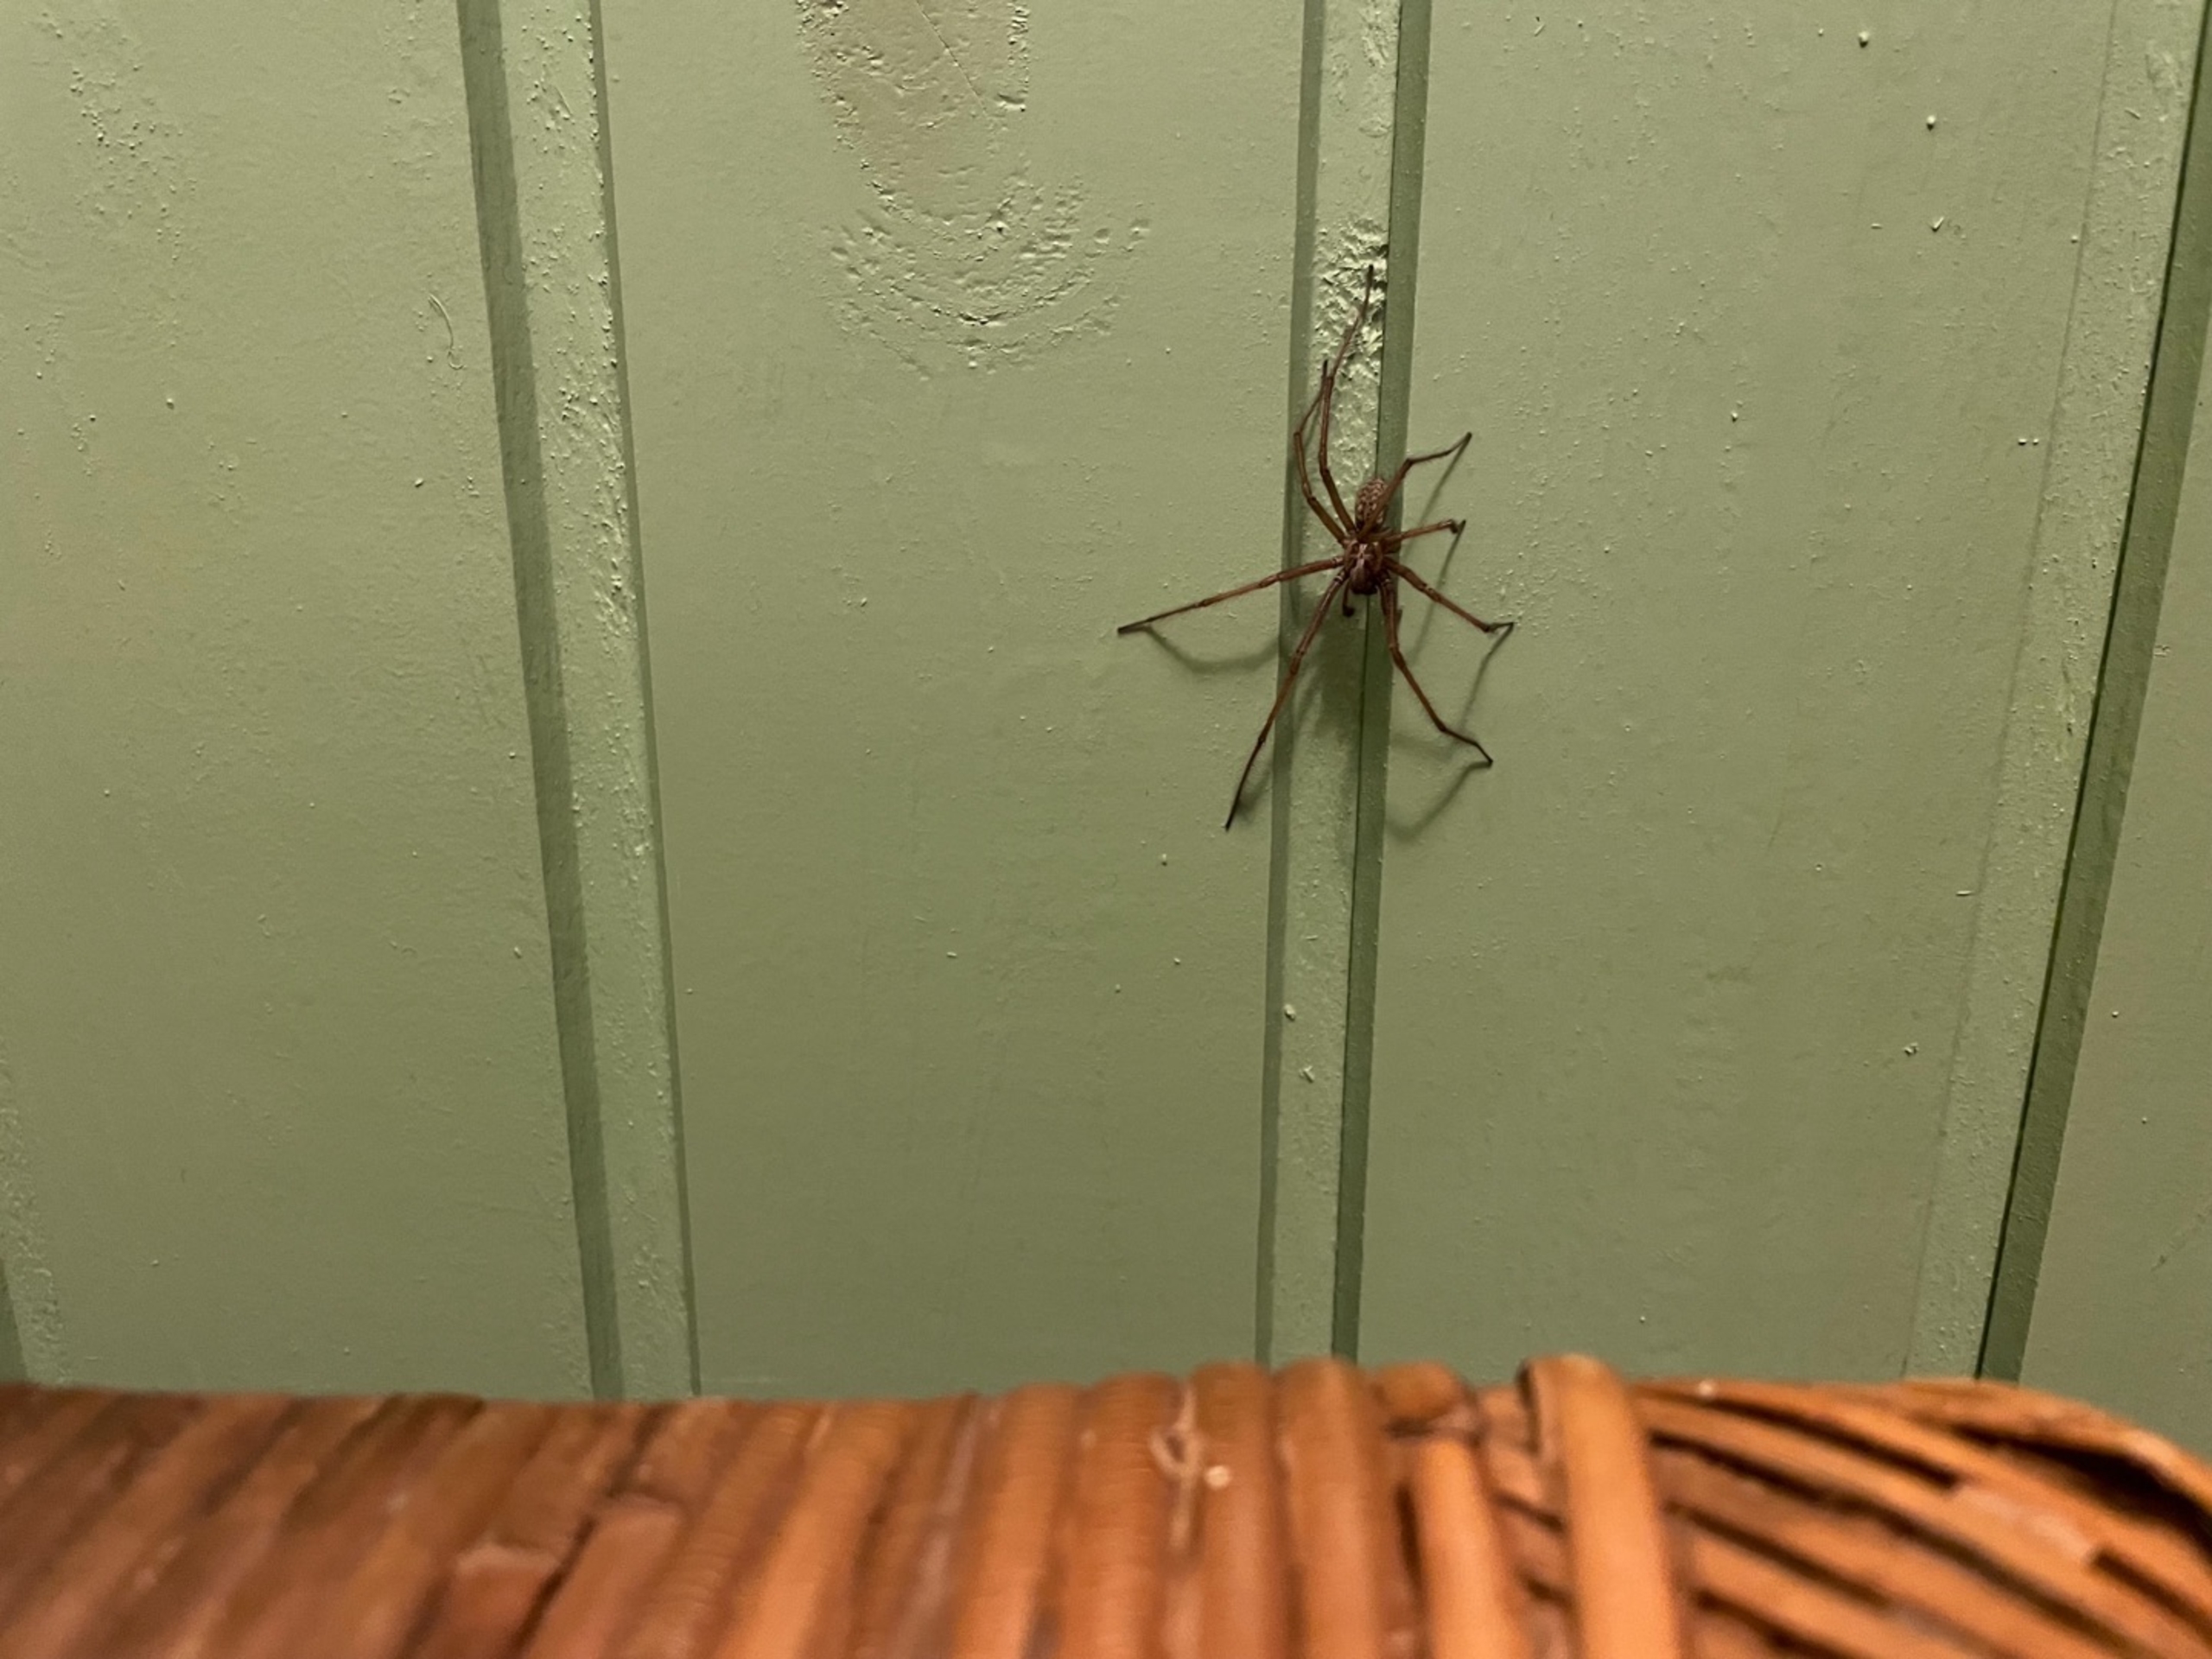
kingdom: Animalia
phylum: Arthropoda
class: Arachnida
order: Araneae
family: Agelenidae
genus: Eratigena
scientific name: Eratigena atrica
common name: Stor husedderkop
